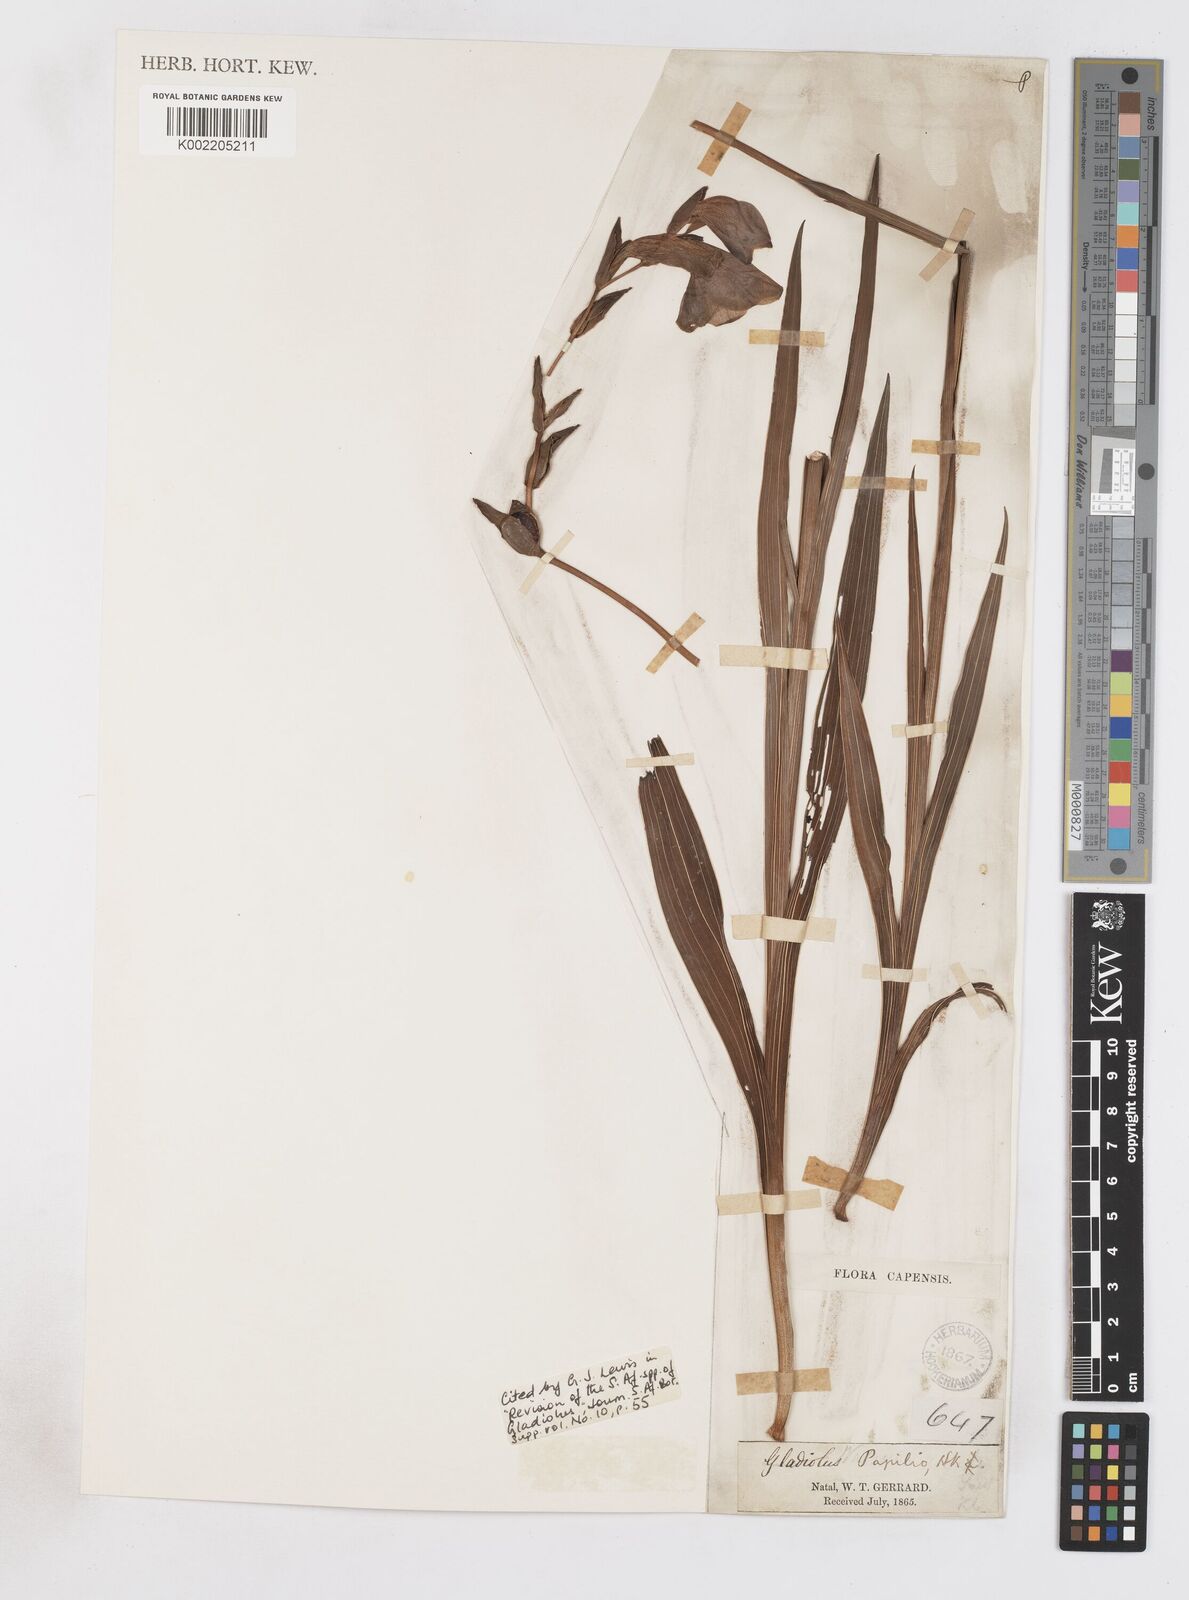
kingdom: Plantae
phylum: Tracheophyta
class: Liliopsida
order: Asparagales
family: Iridaceae
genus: Gladiolus
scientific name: Gladiolus papilio
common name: Goldblotch gladiolus
